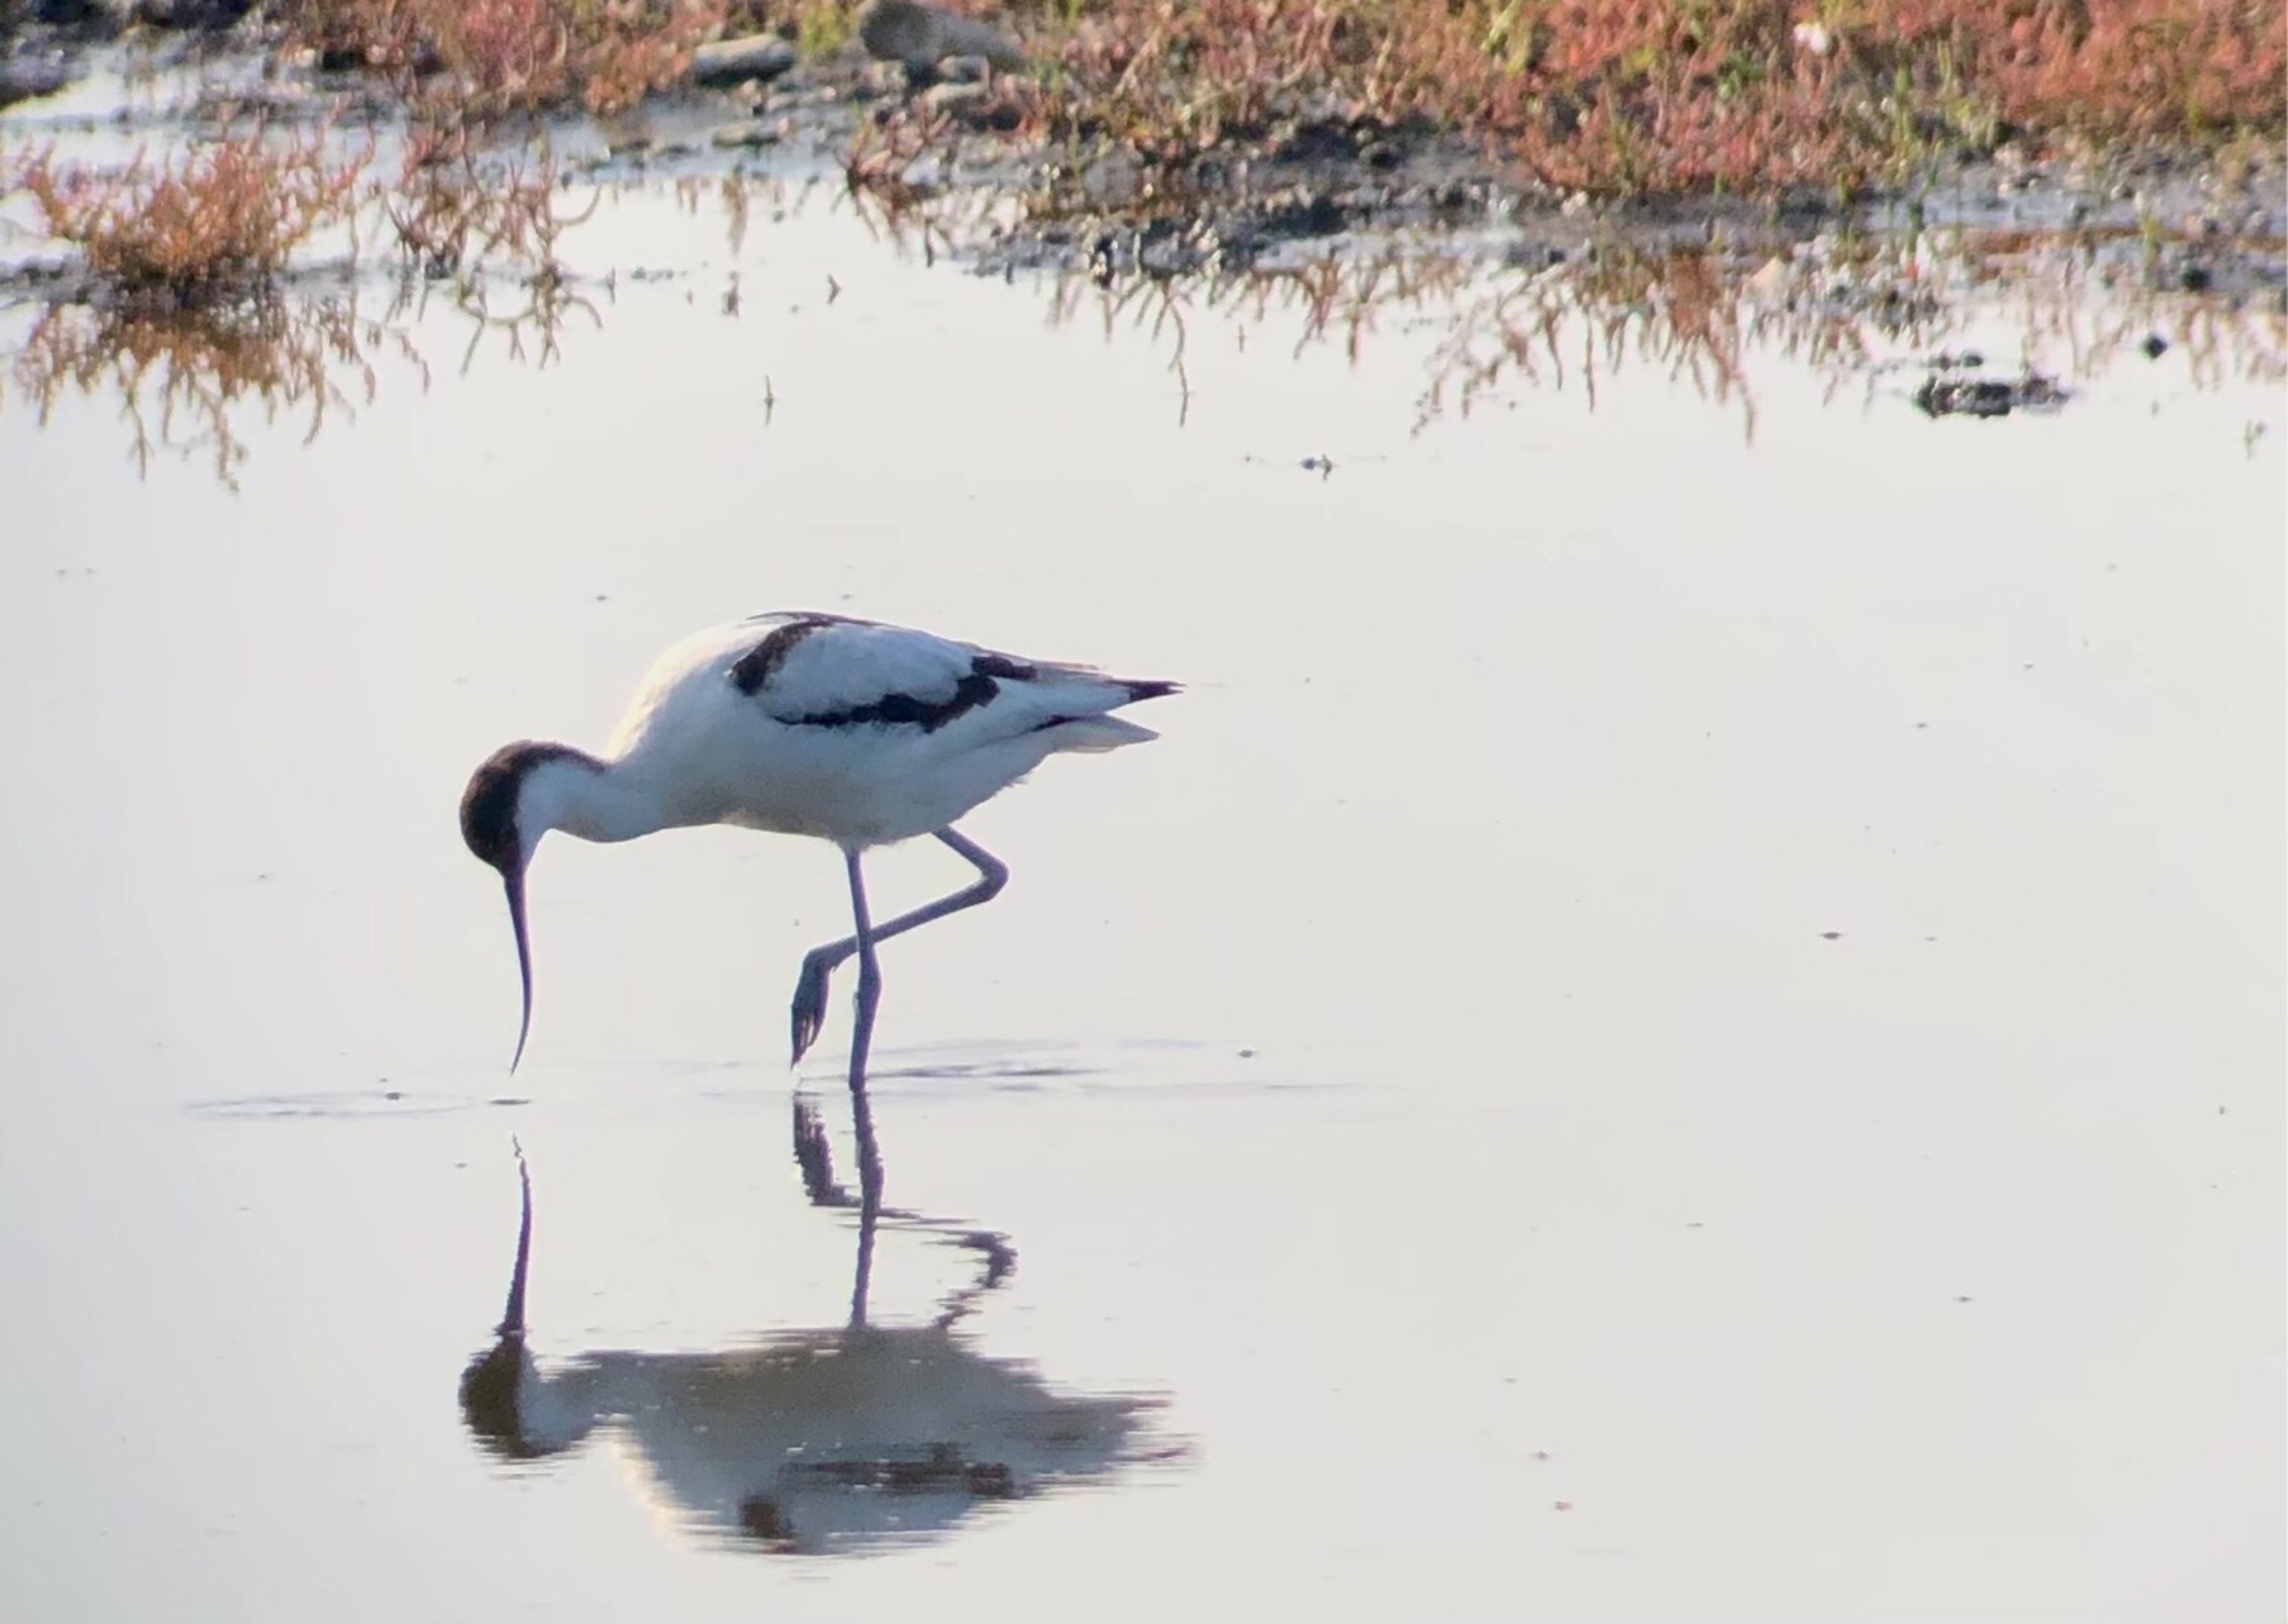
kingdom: Animalia
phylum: Chordata
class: Aves
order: Charadriiformes
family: Recurvirostridae
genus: Recurvirostra
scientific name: Recurvirostra avosetta
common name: Klyde
